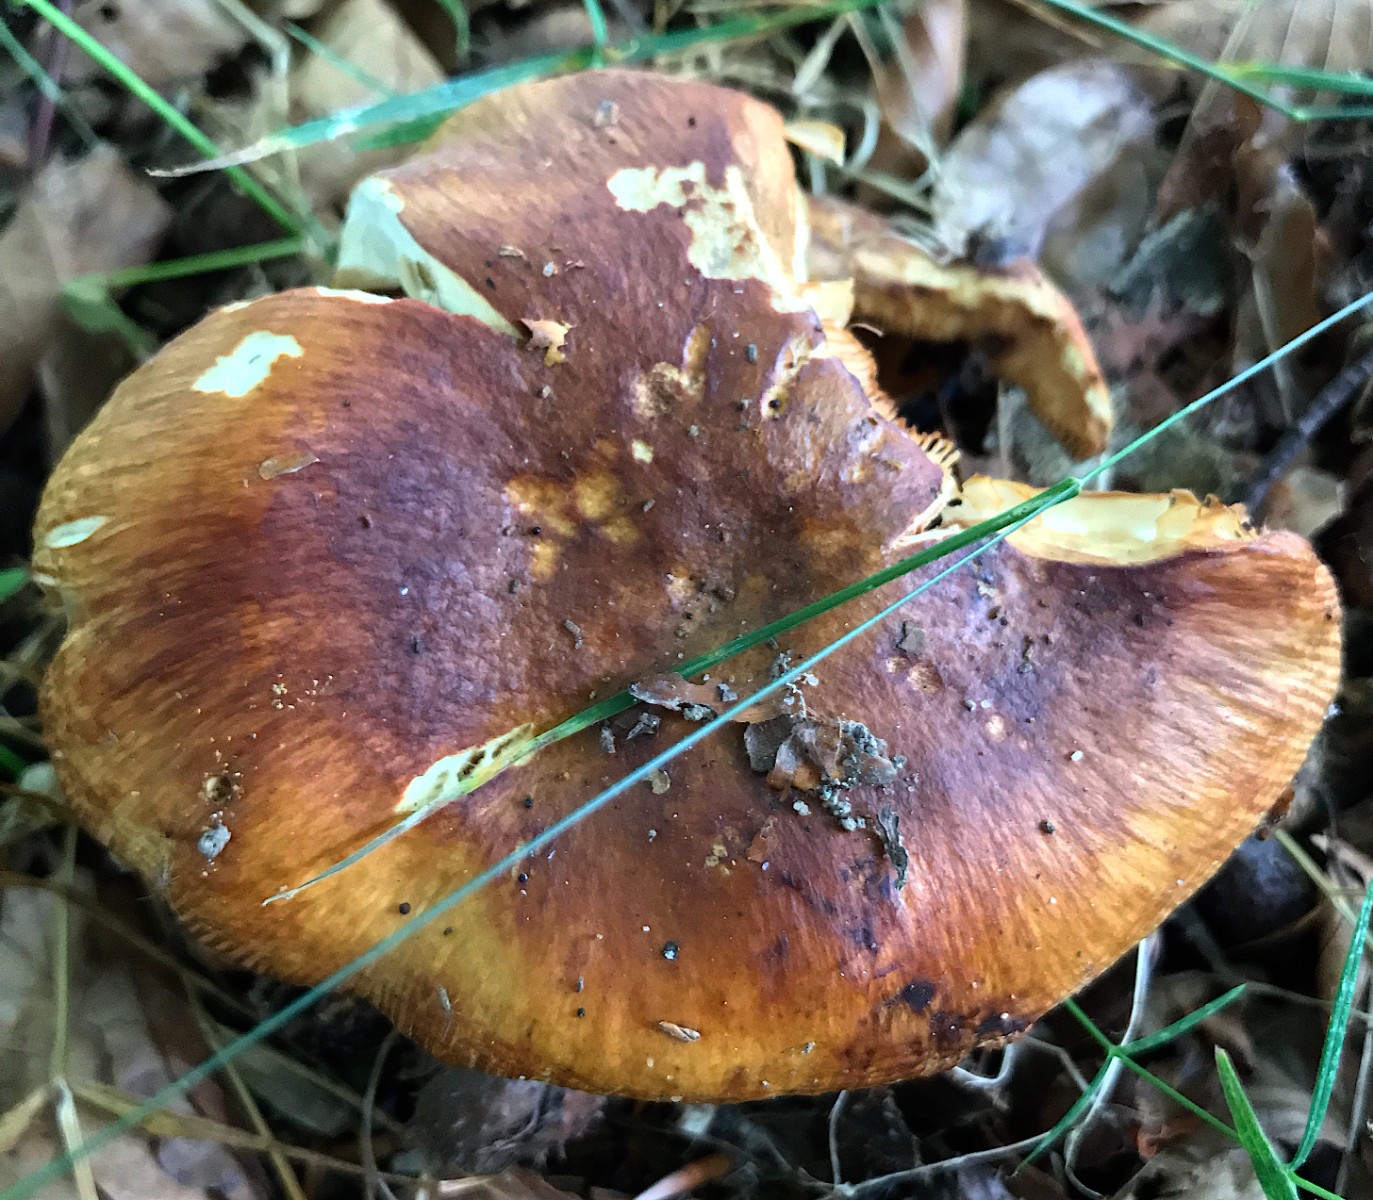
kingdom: Fungi
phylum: Basidiomycota
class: Agaricomycetes
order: Russulales
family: Russulaceae
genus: Russula
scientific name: Russula foetens
